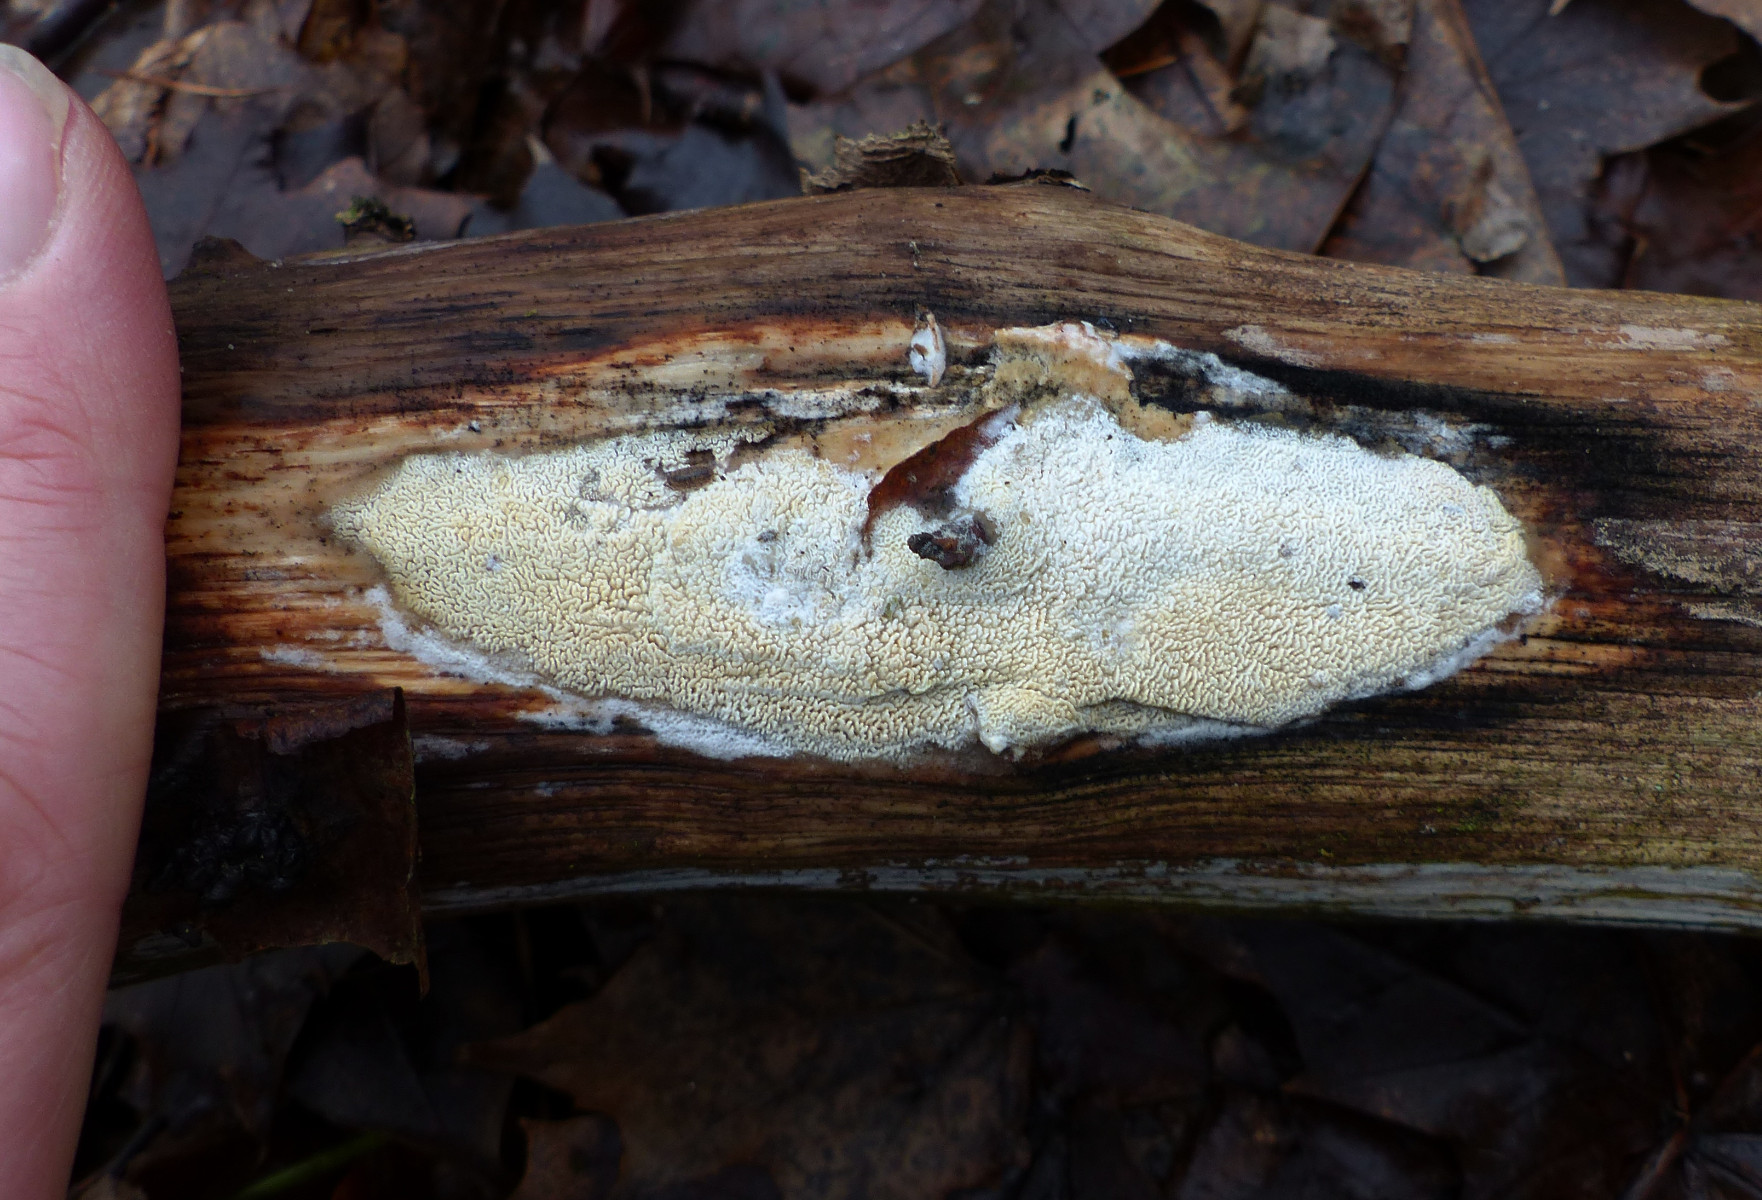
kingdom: Fungi
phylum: Basidiomycota
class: Agaricomycetes
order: Hymenochaetales
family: Schizoporaceae
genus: Xylodon
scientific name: Xylodon subtropicus
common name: labyrint-tandsvamp
